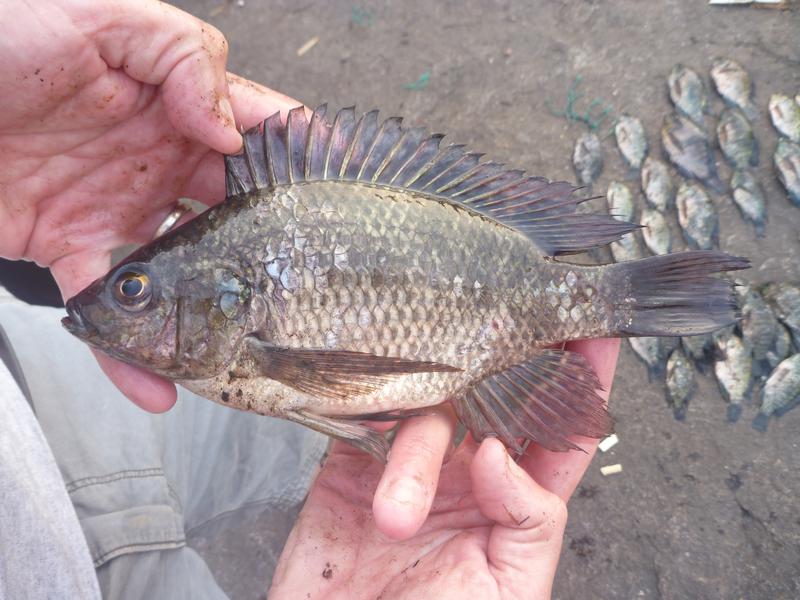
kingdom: Animalia
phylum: Chordata
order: Perciformes
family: Cichlidae
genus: Oreochromis
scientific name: Oreochromis leucostictus
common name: Blue spotted tilapia
